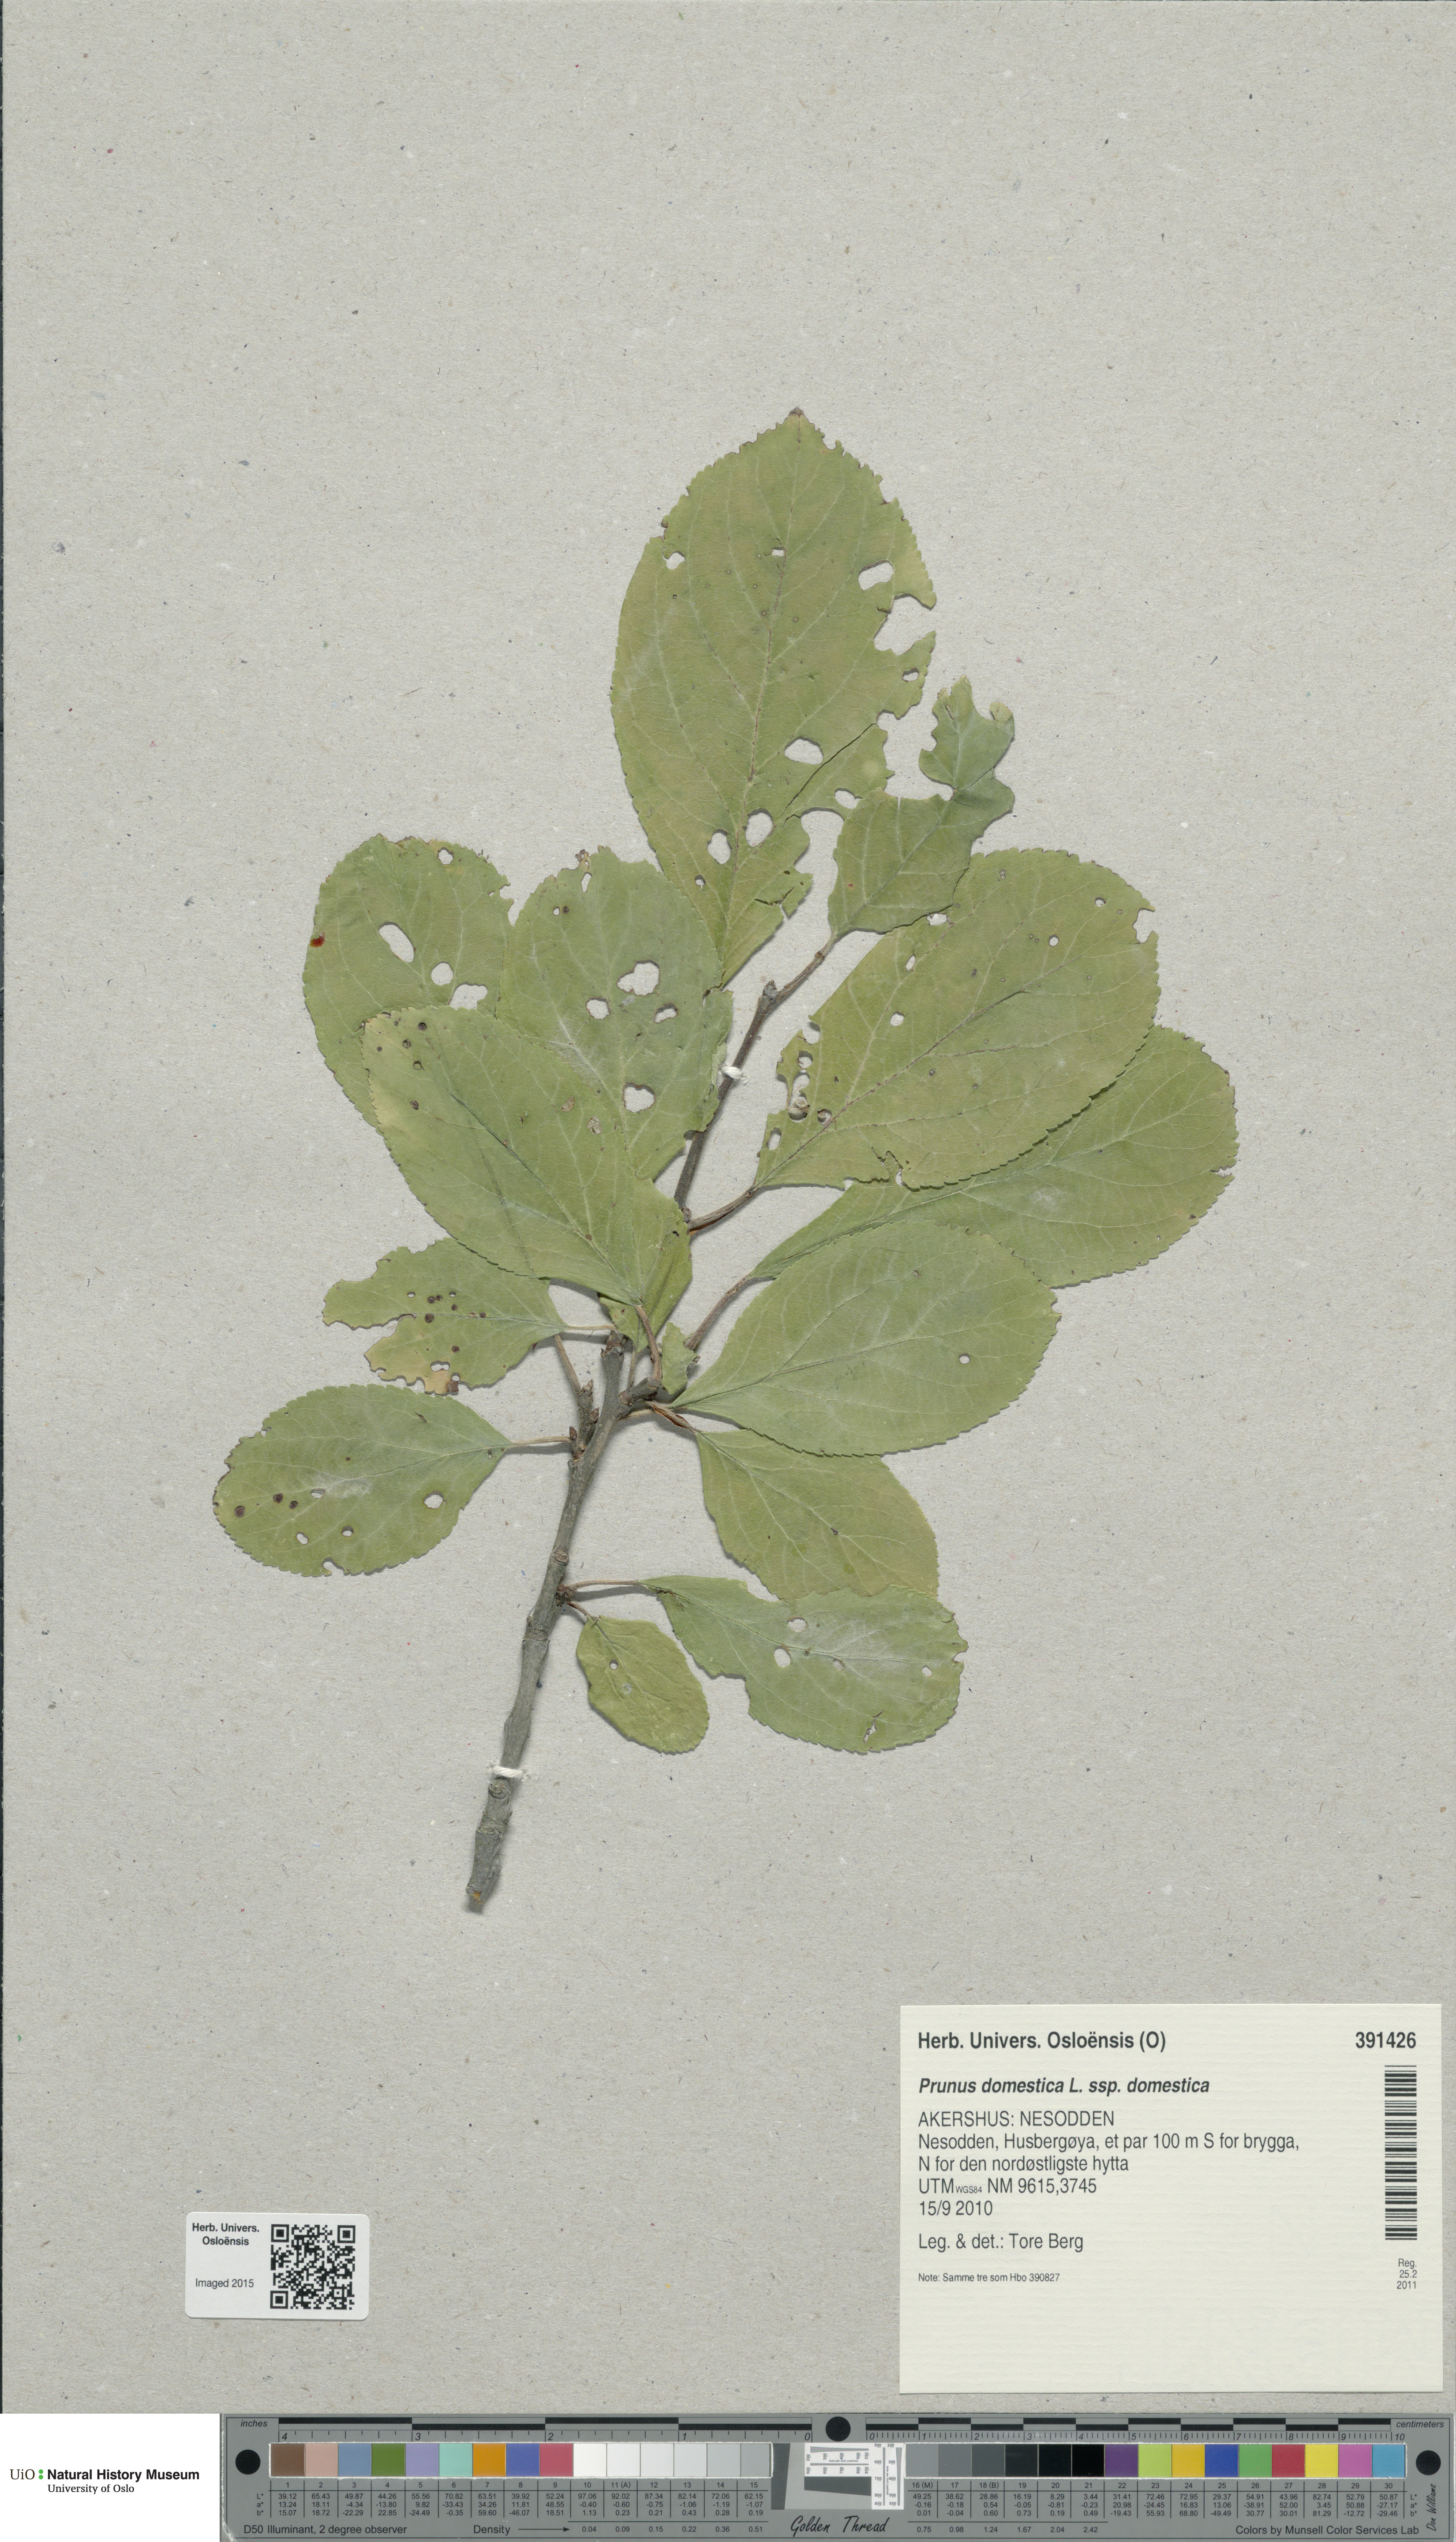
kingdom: Plantae
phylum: Tracheophyta
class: Magnoliopsida
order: Rosales
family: Rosaceae
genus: Prunus
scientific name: Prunus domestica
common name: Wild plum
